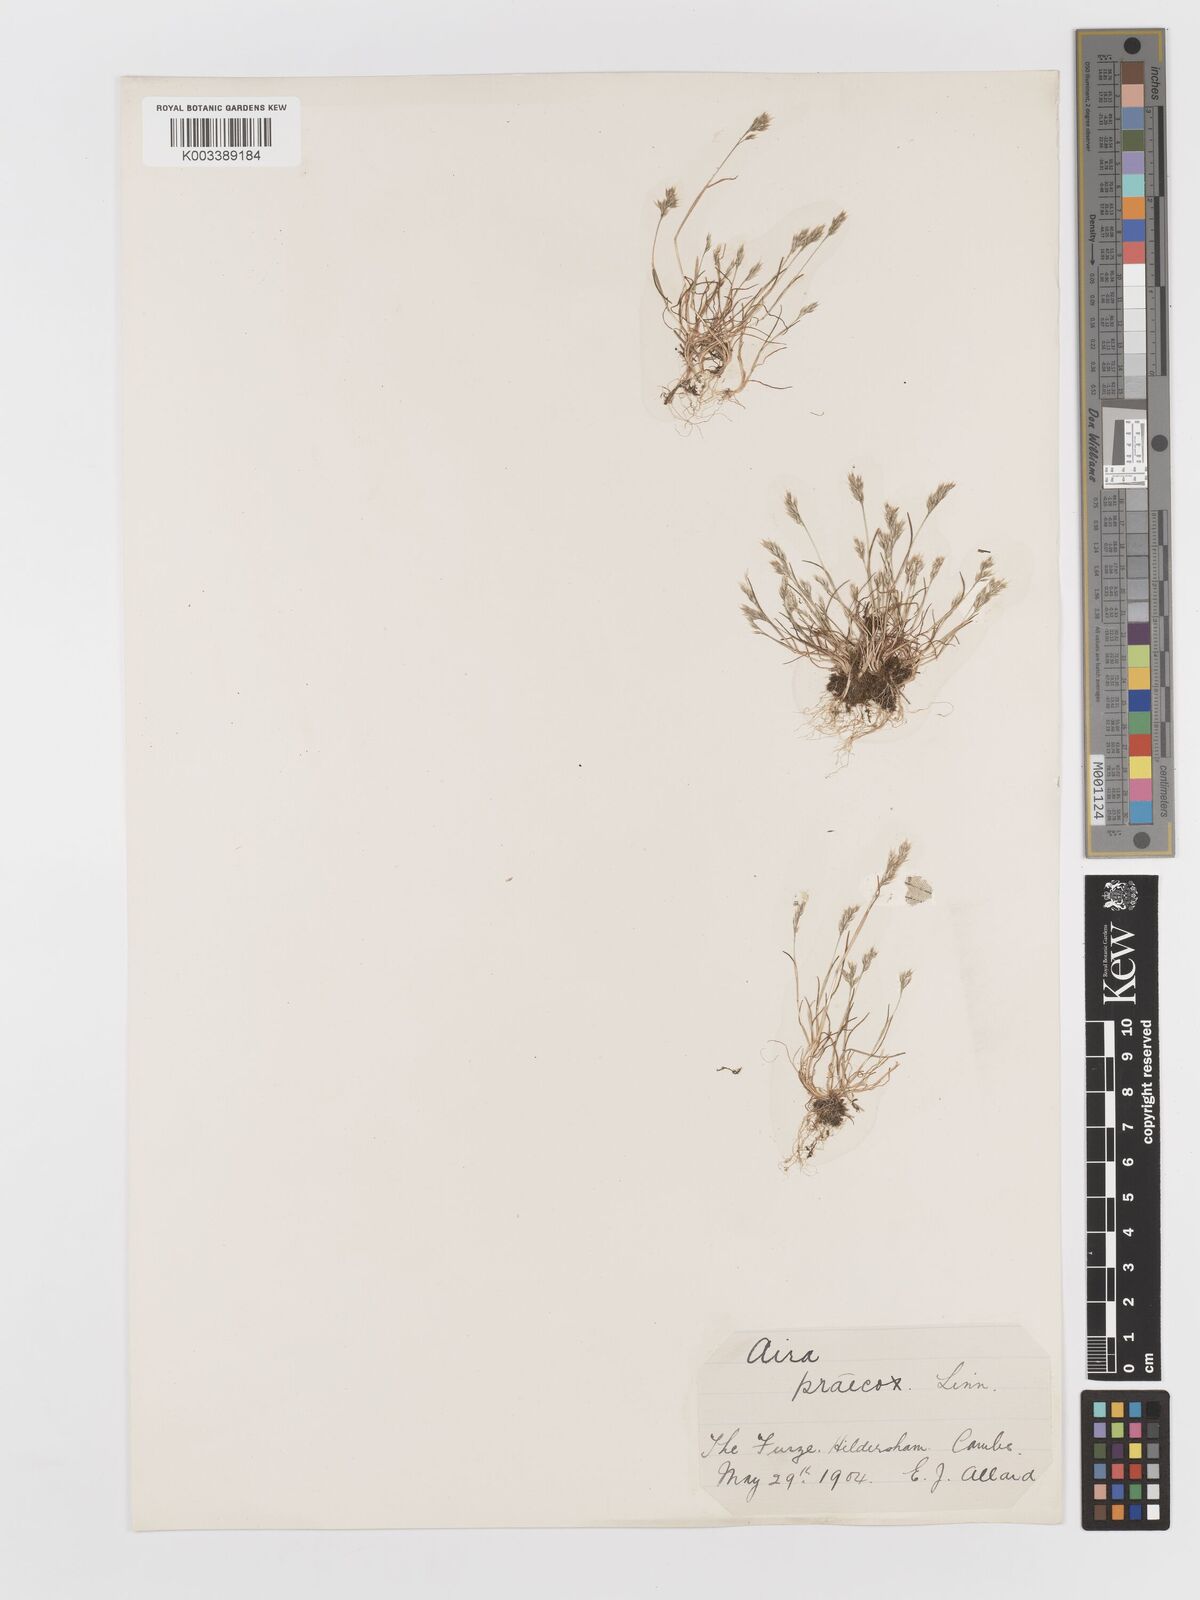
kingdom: Plantae
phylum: Tracheophyta
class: Liliopsida
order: Poales
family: Poaceae
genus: Aira
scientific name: Aira praecox
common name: Early hair-grass
